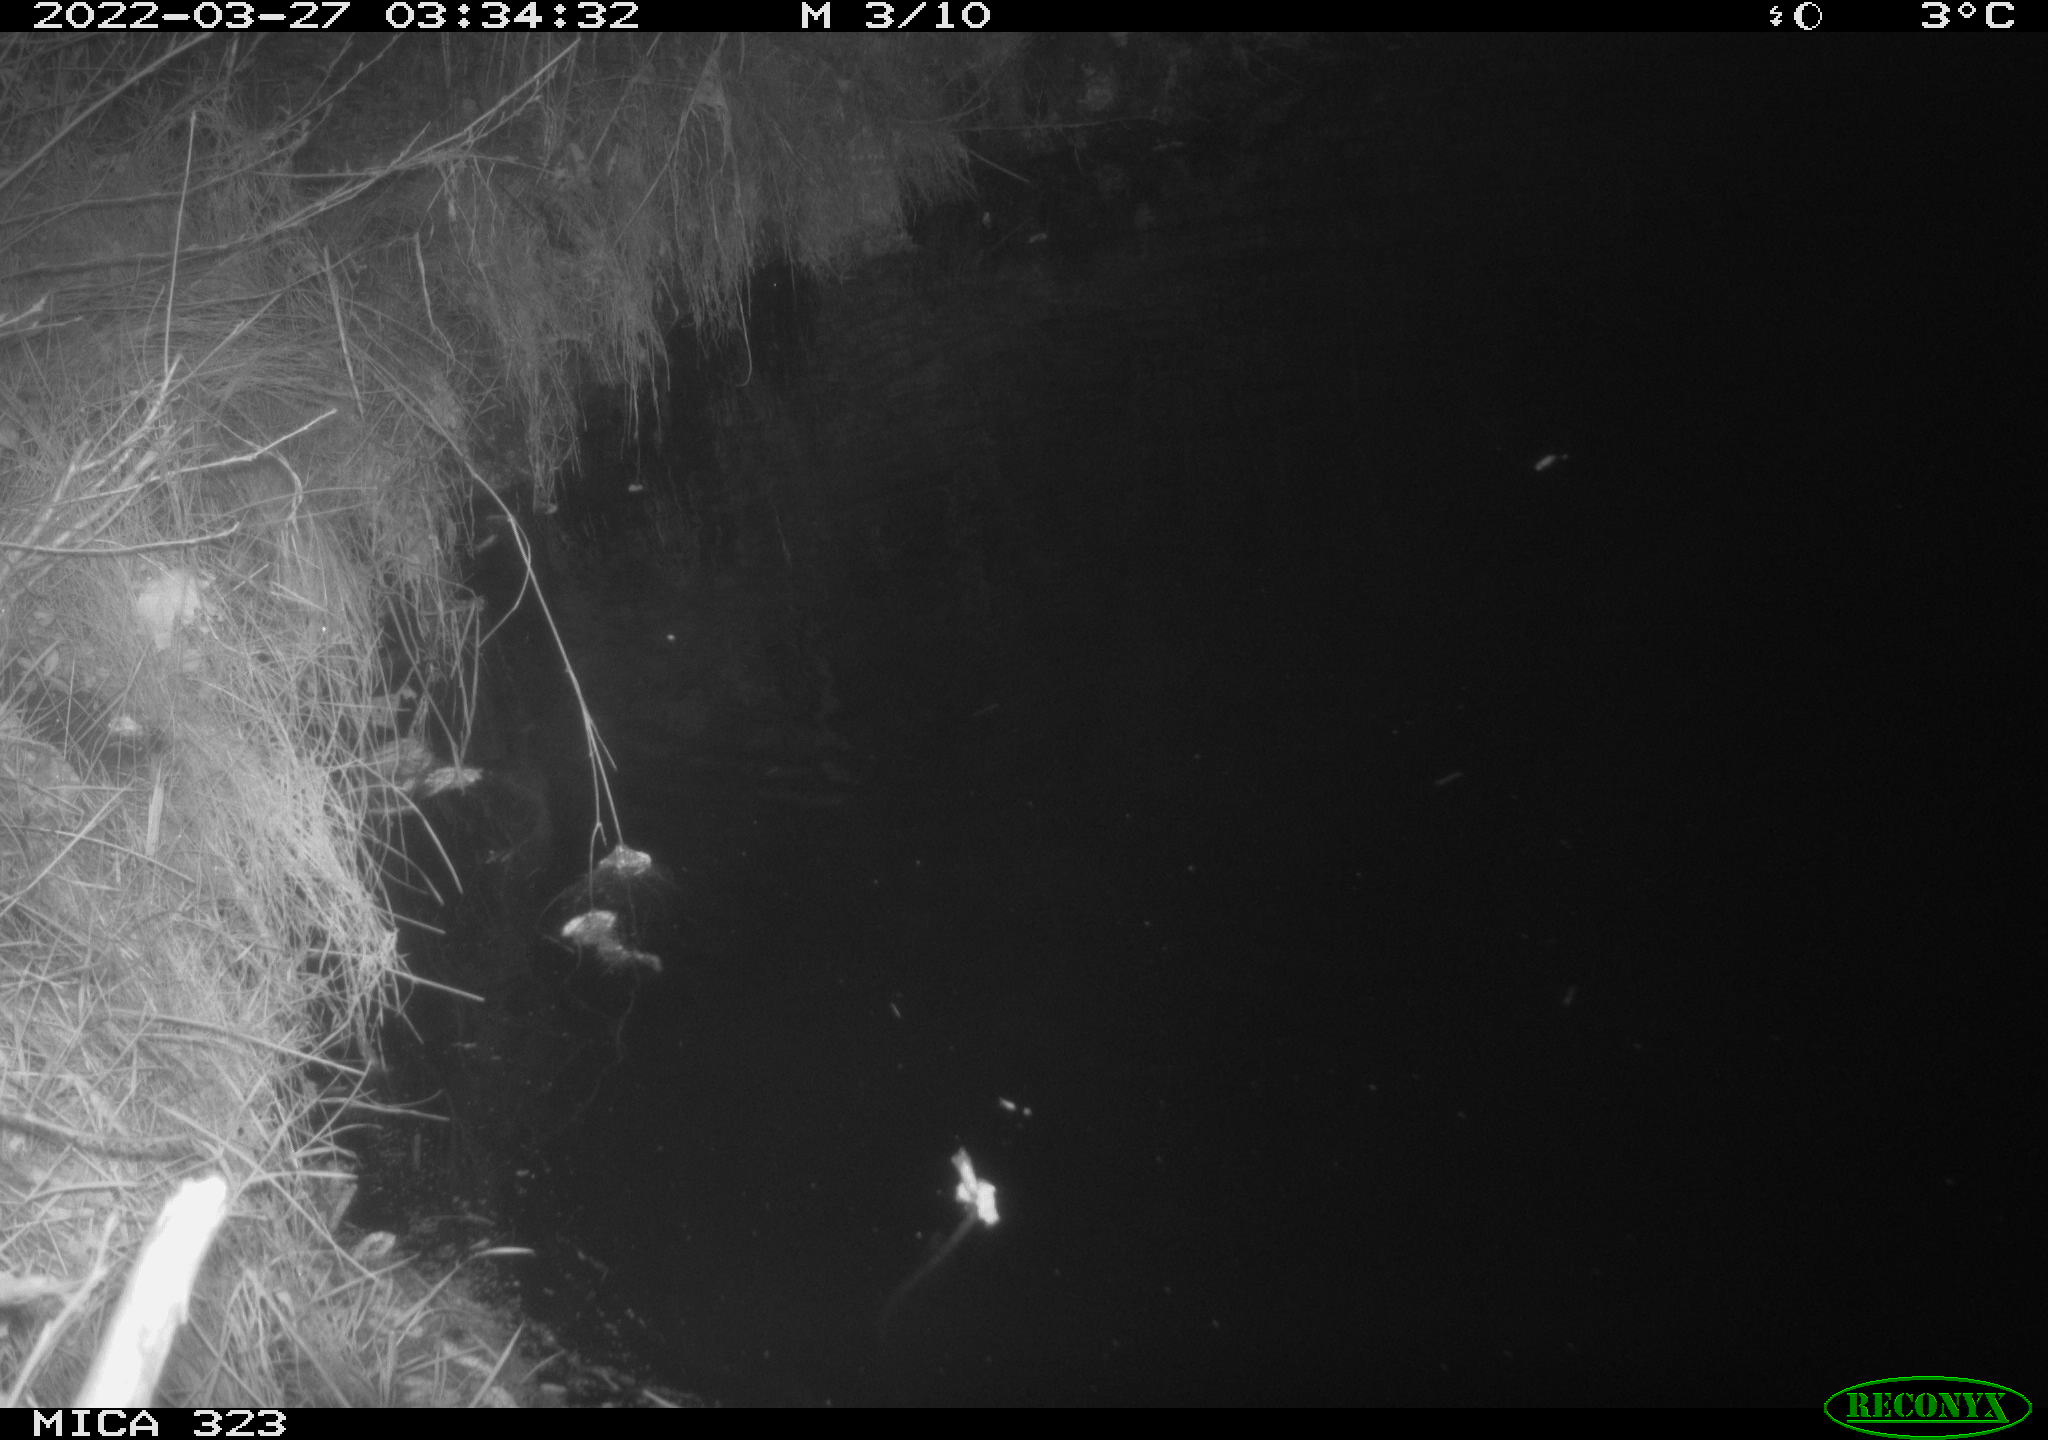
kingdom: Animalia
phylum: Chordata
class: Aves
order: Anseriformes
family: Anatidae
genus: Anas
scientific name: Anas
